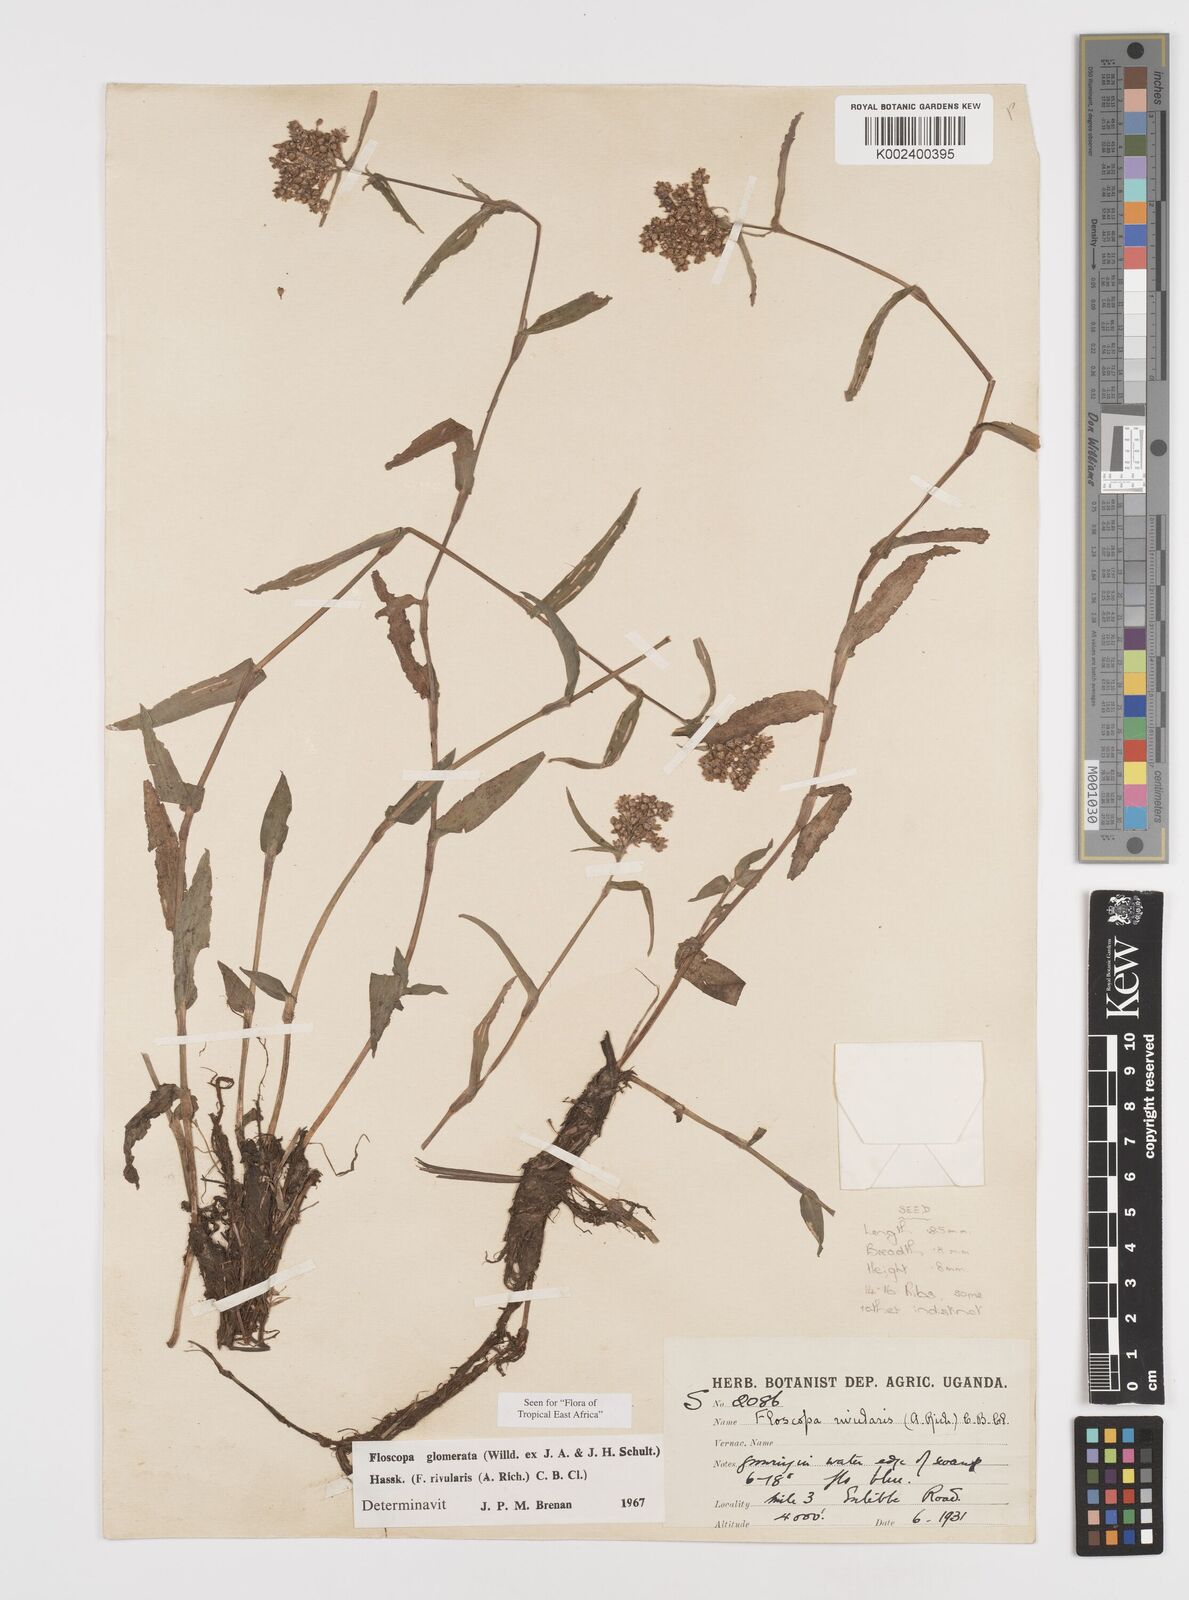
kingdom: Plantae
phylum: Tracheophyta
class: Liliopsida
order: Commelinales
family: Commelinaceae
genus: Floscopa
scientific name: Floscopa glomerata
